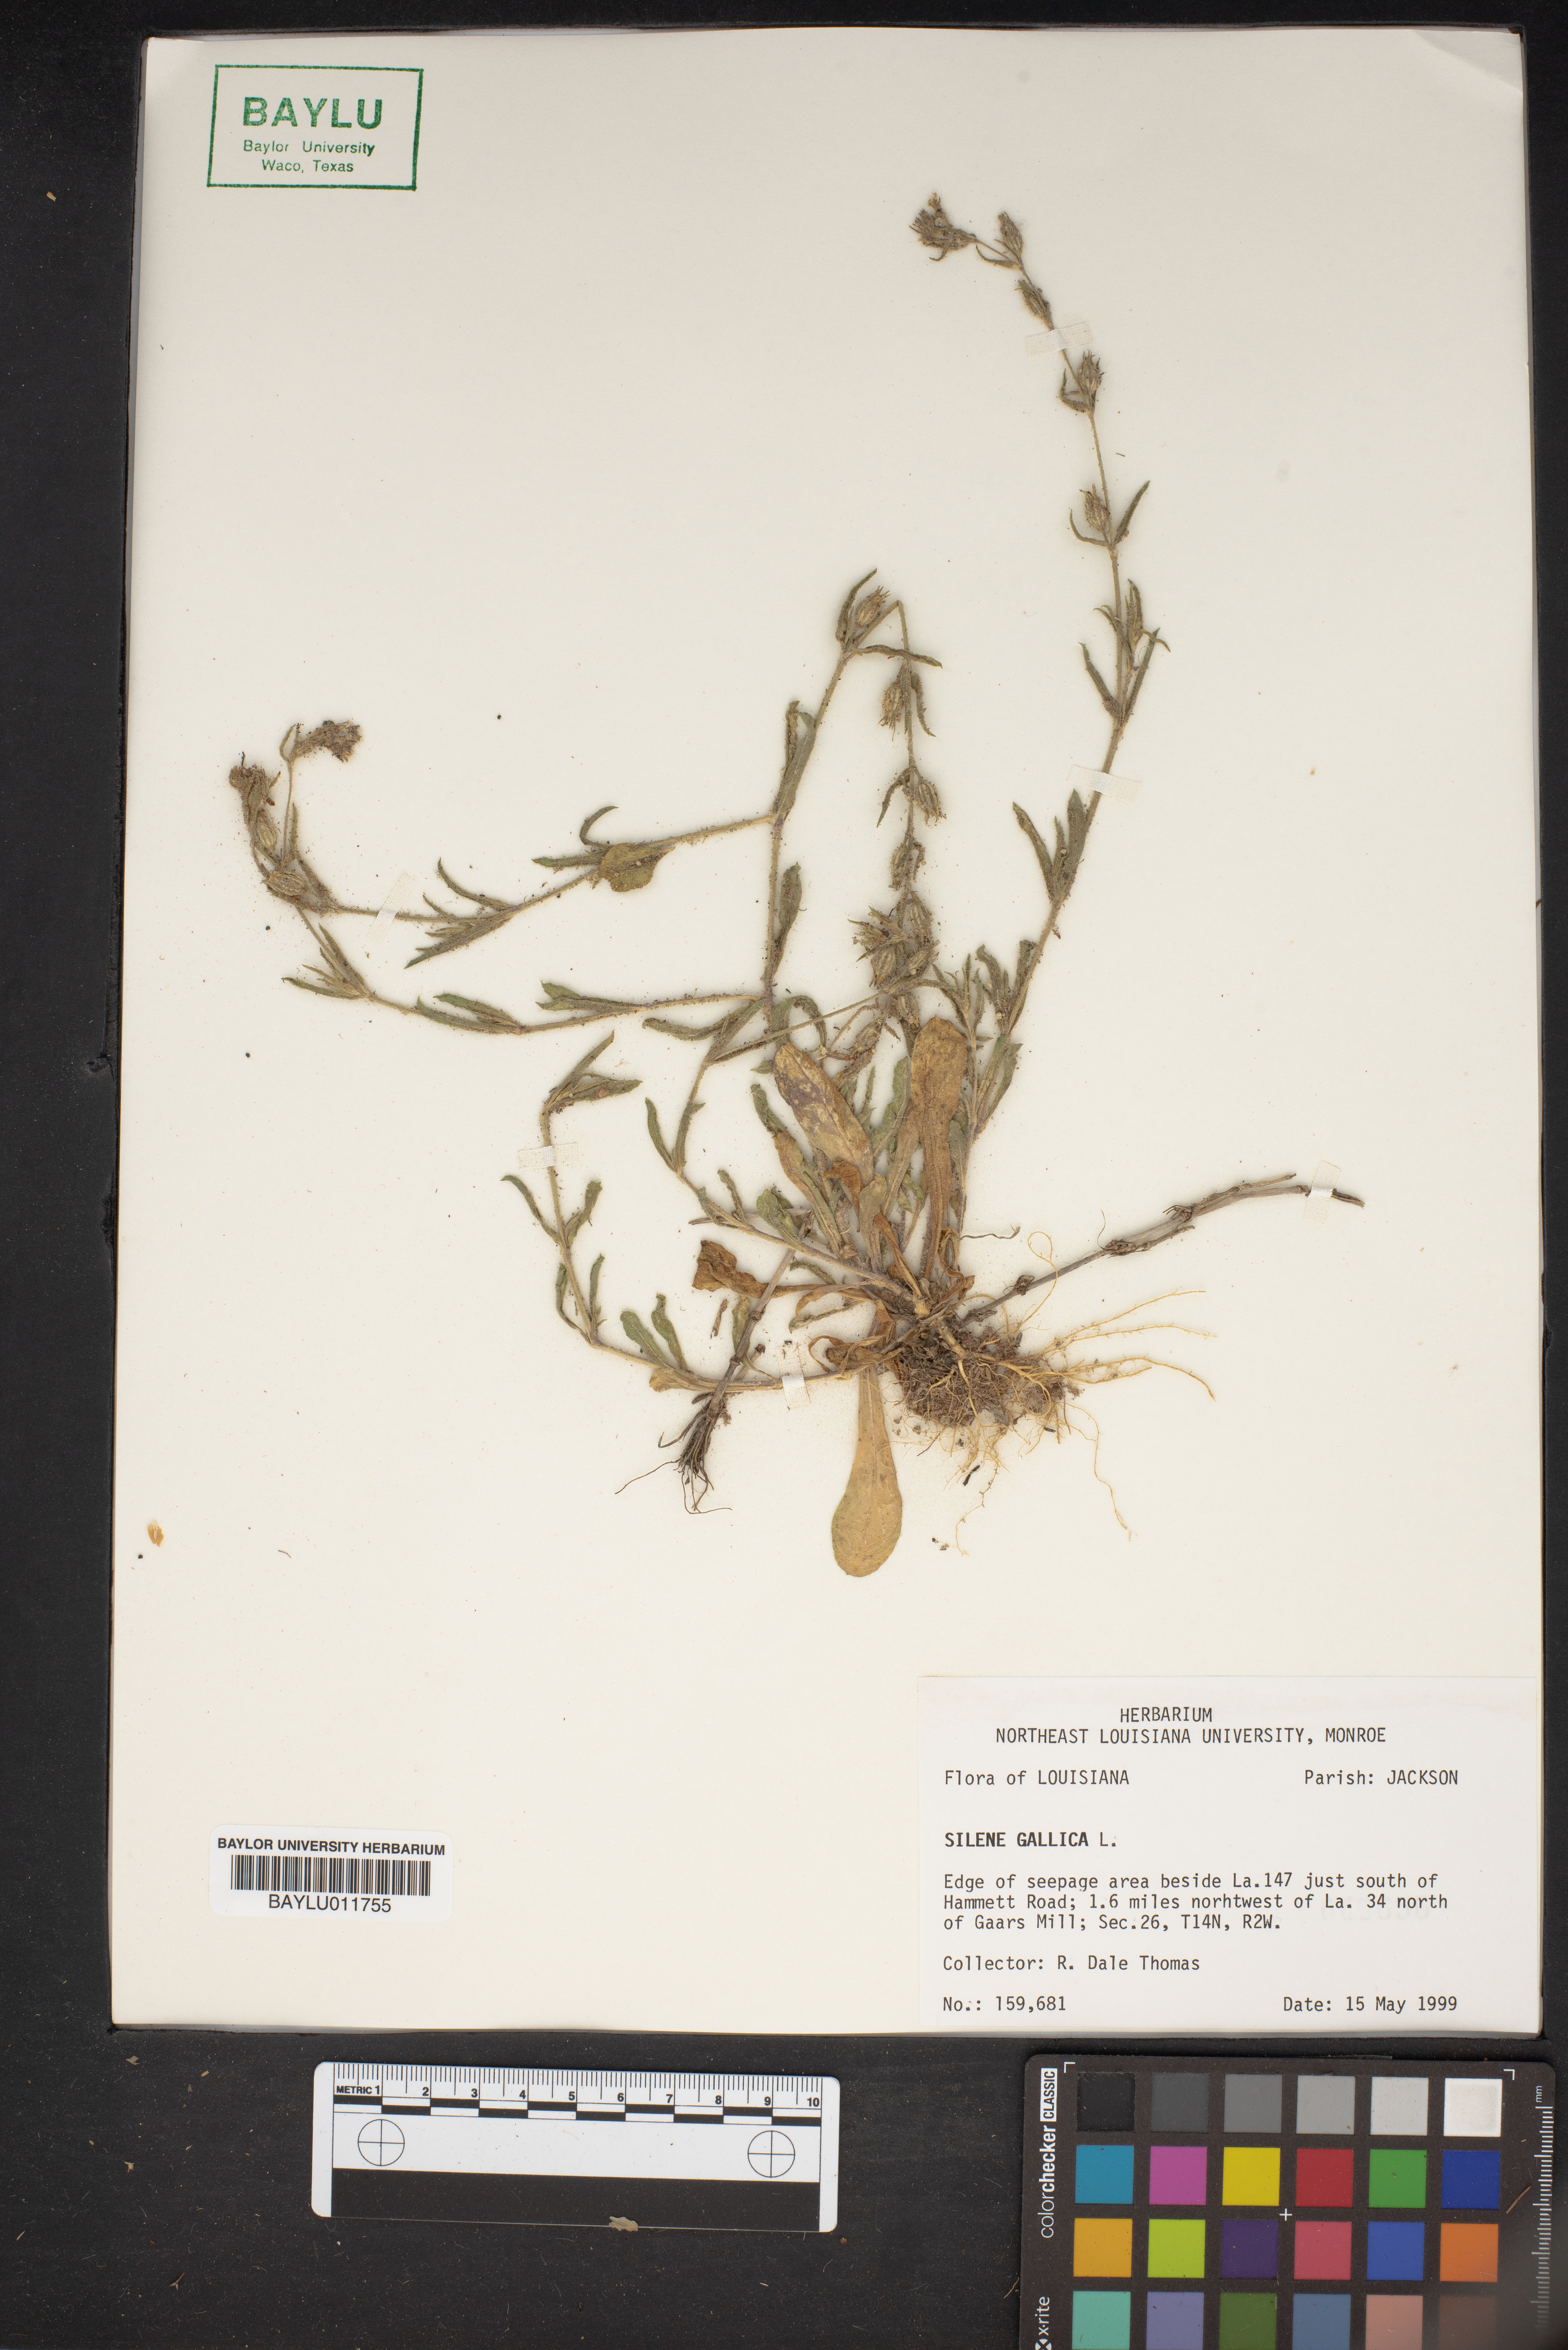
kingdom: Plantae
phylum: Tracheophyta
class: Magnoliopsida
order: Caryophyllales
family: Caryophyllaceae
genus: Silene
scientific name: Silene gallica
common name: Small-flowered catchfly
